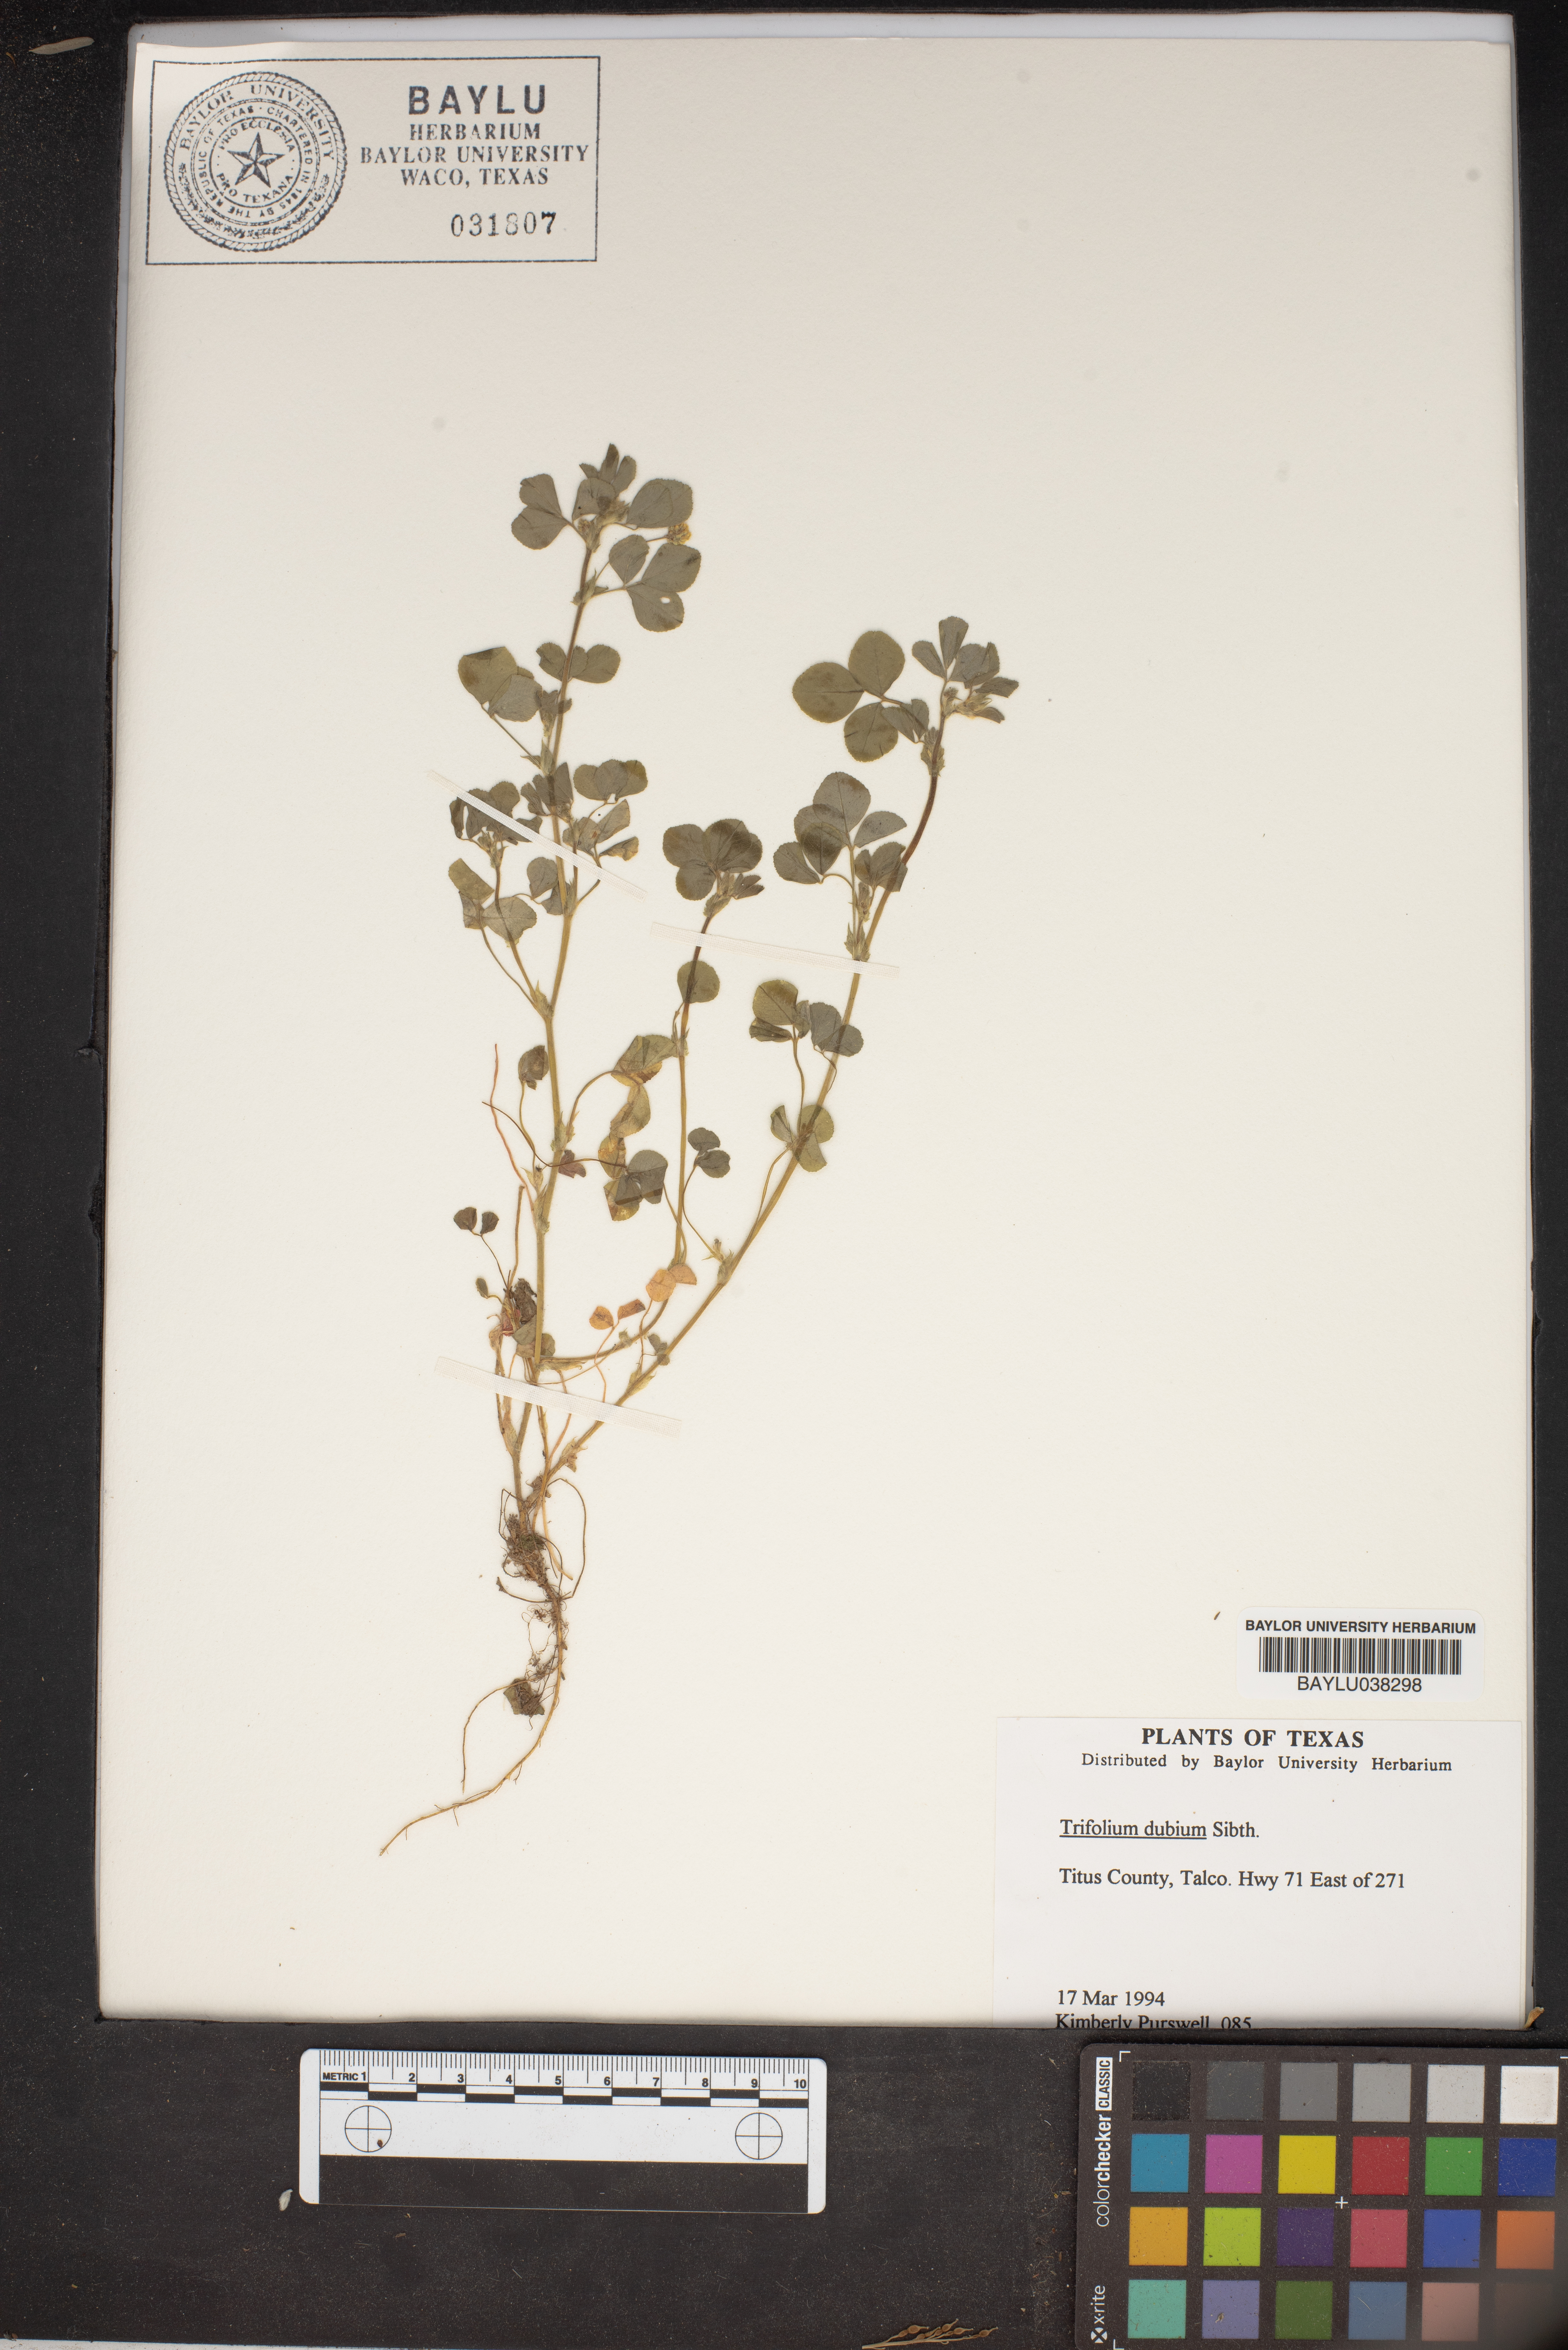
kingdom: Plantae
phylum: Tracheophyta
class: Magnoliopsida
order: Fabales
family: Fabaceae
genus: Trifolium
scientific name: Trifolium dubium
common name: Suckling clover
